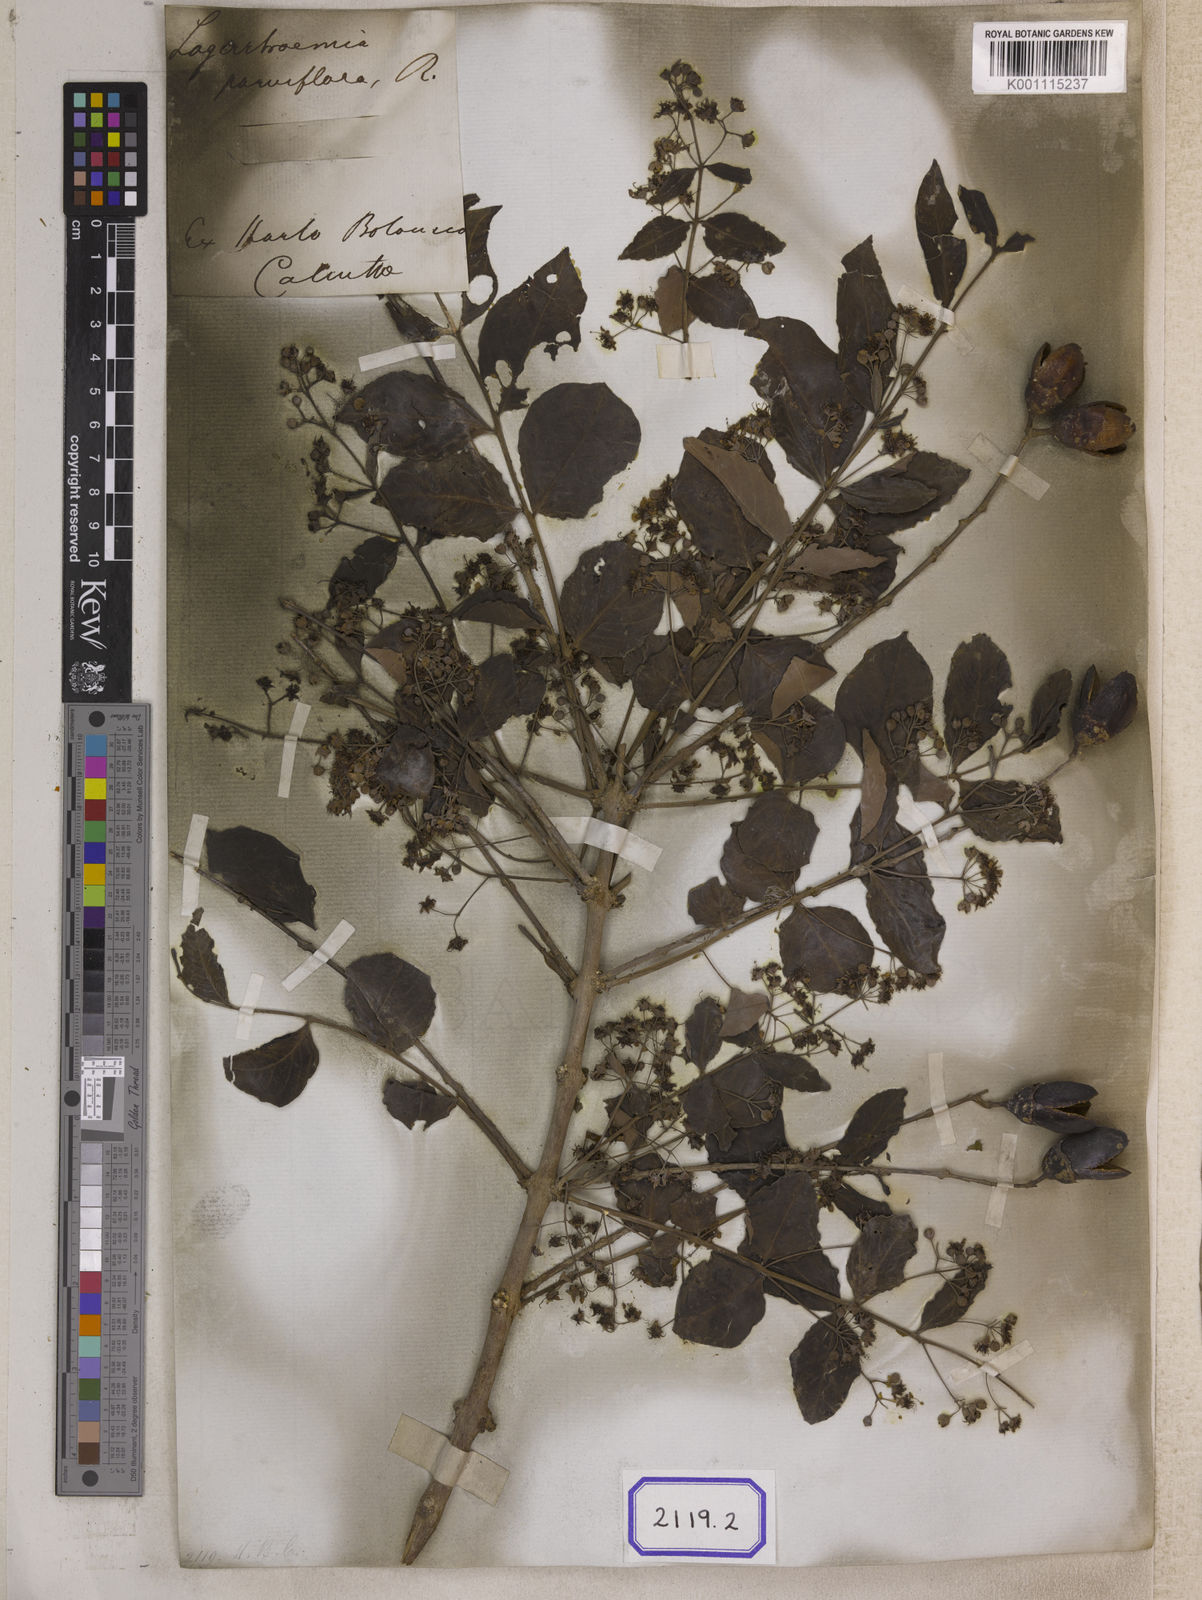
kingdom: Plantae
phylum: Tracheophyta
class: Magnoliopsida
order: Myrtales
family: Lythraceae
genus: Lagerstroemia
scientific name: Lagerstroemia parviflora
